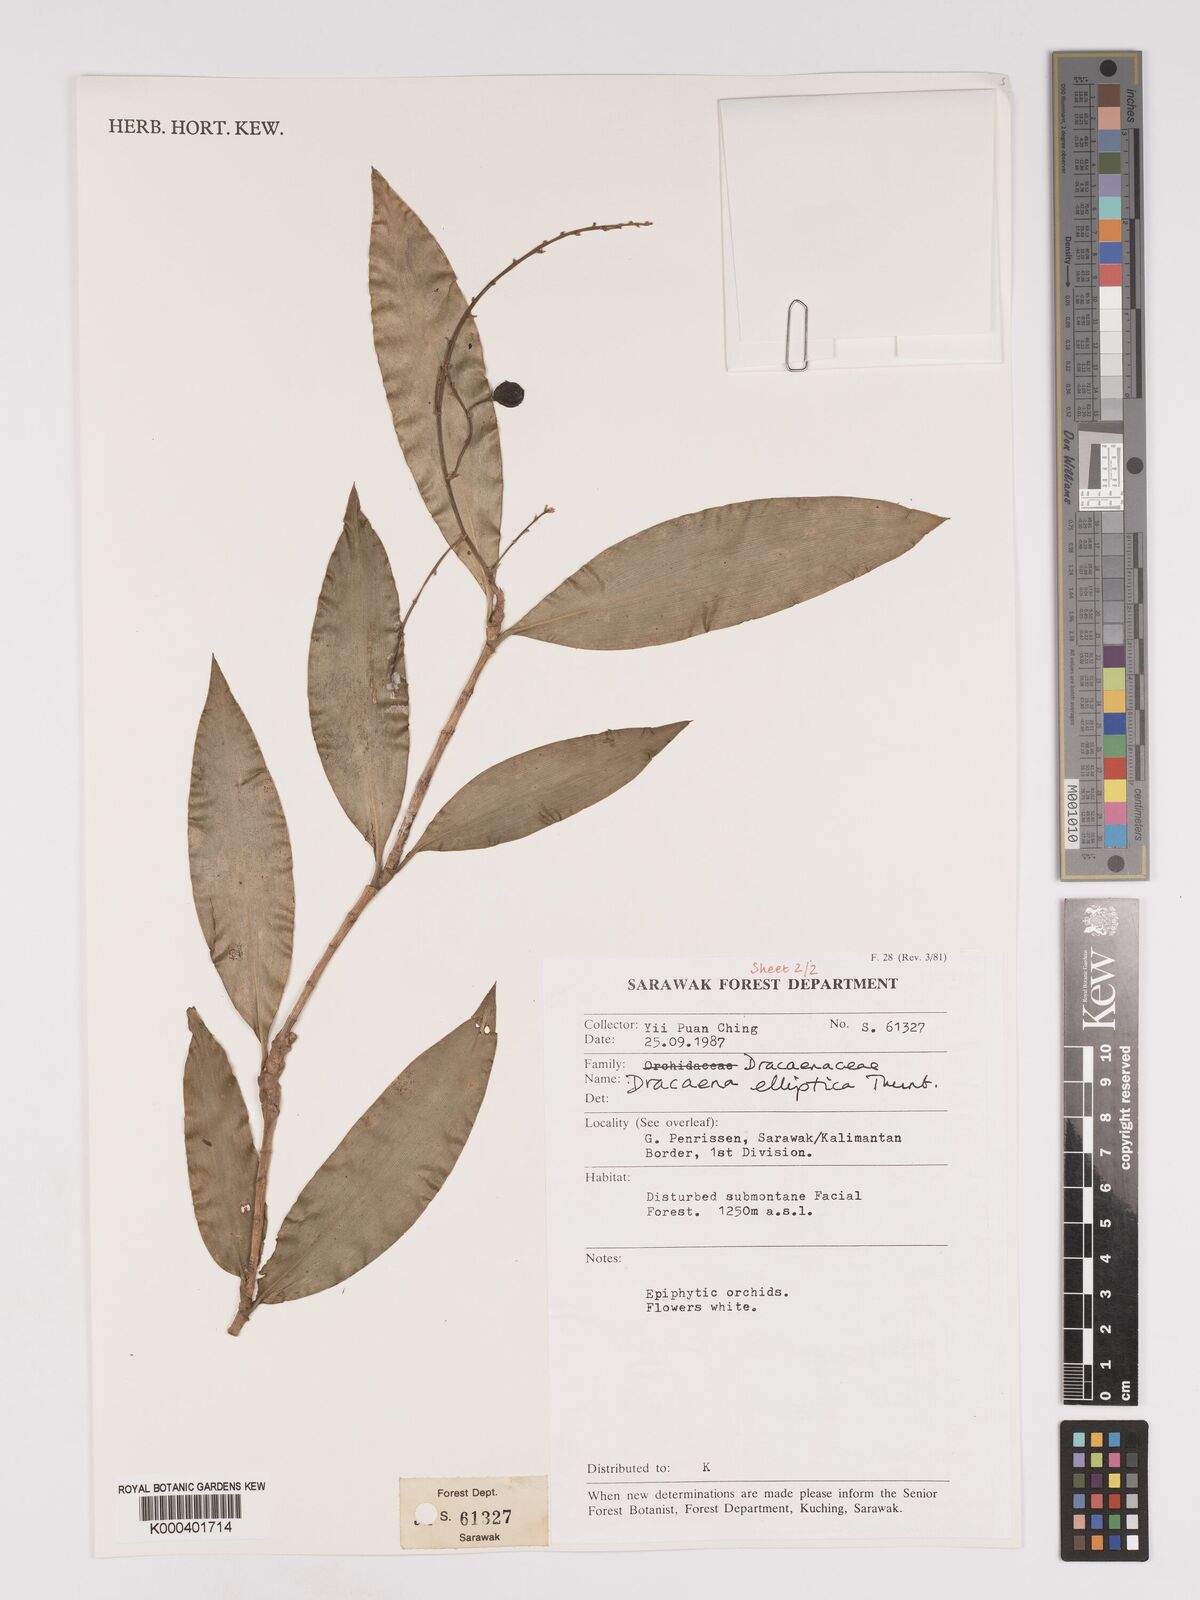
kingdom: Plantae
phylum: Tracheophyta
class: Liliopsida
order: Asparagales
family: Asparagaceae
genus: Dracaena
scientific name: Dracaena elliptica
